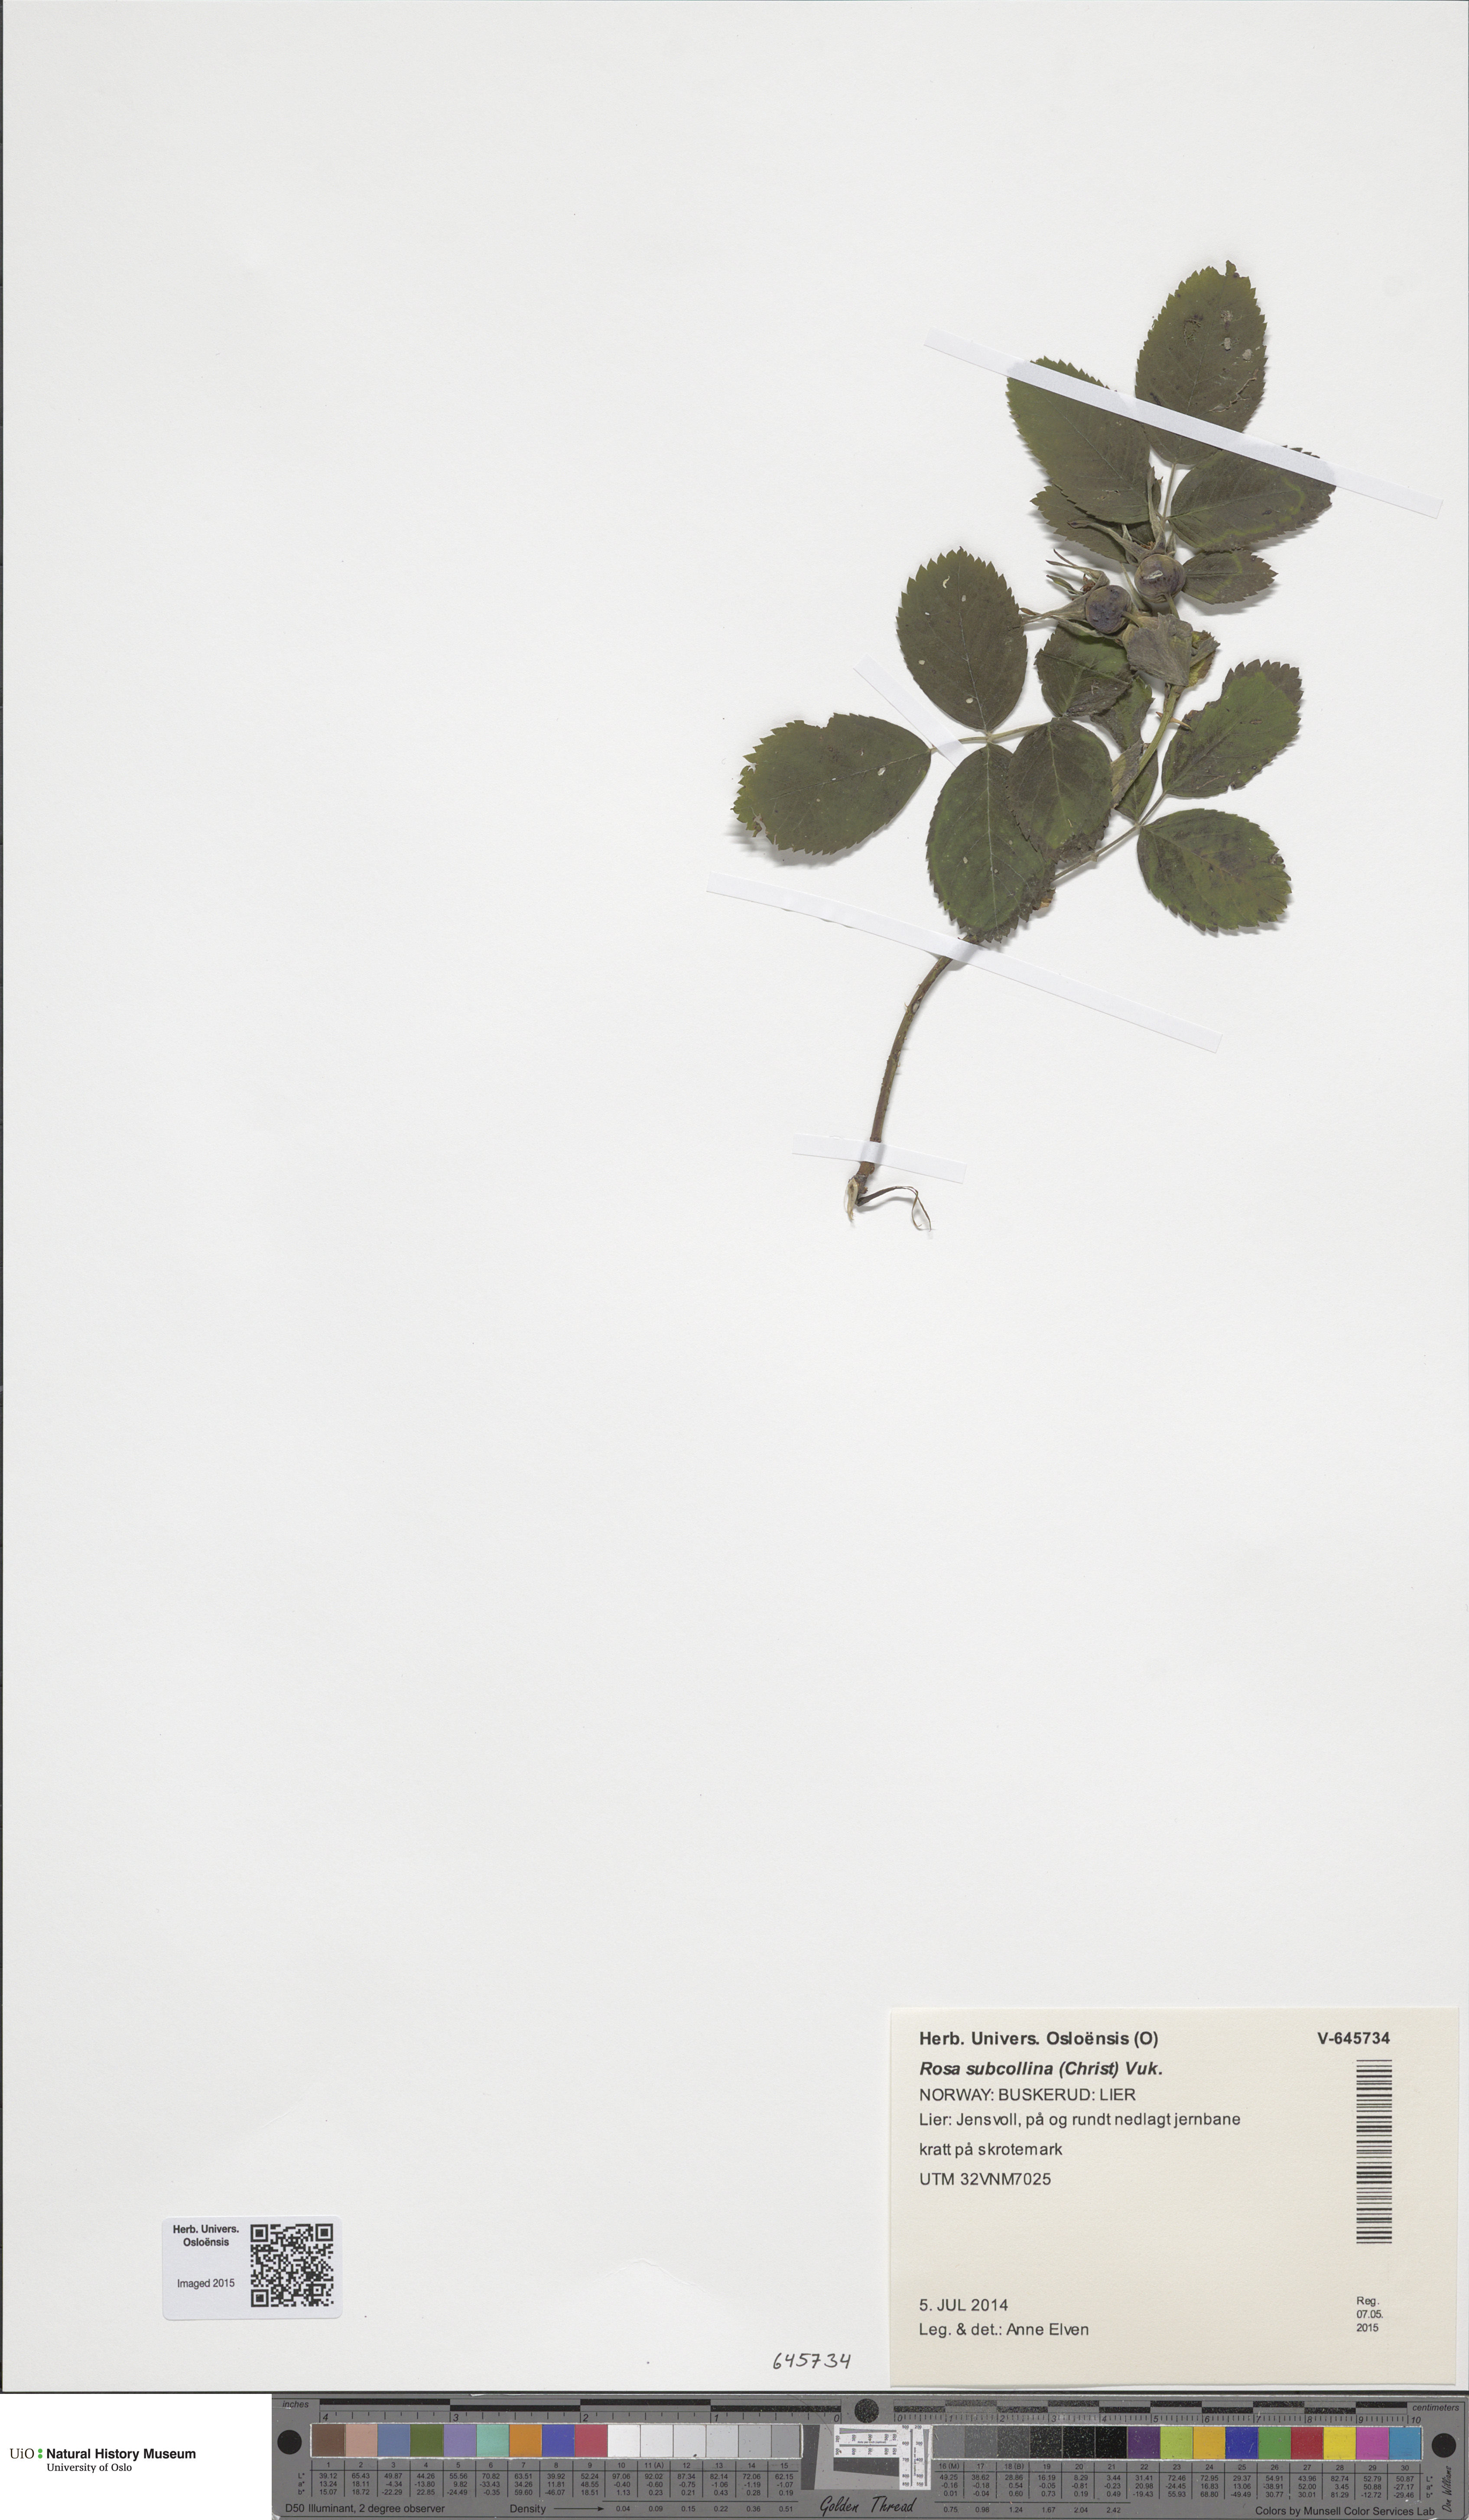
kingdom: Plantae
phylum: Tracheophyta
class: Magnoliopsida
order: Rosales
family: Rosaceae
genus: Rosa
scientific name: Rosa subcollina
